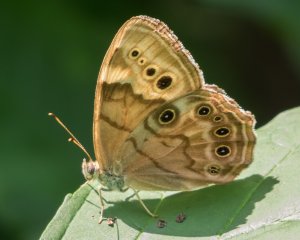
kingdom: Animalia
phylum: Arthropoda
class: Insecta
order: Lepidoptera
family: Nymphalidae
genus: Lethe
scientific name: Lethe anthedon
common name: Northern Pearly-Eye
